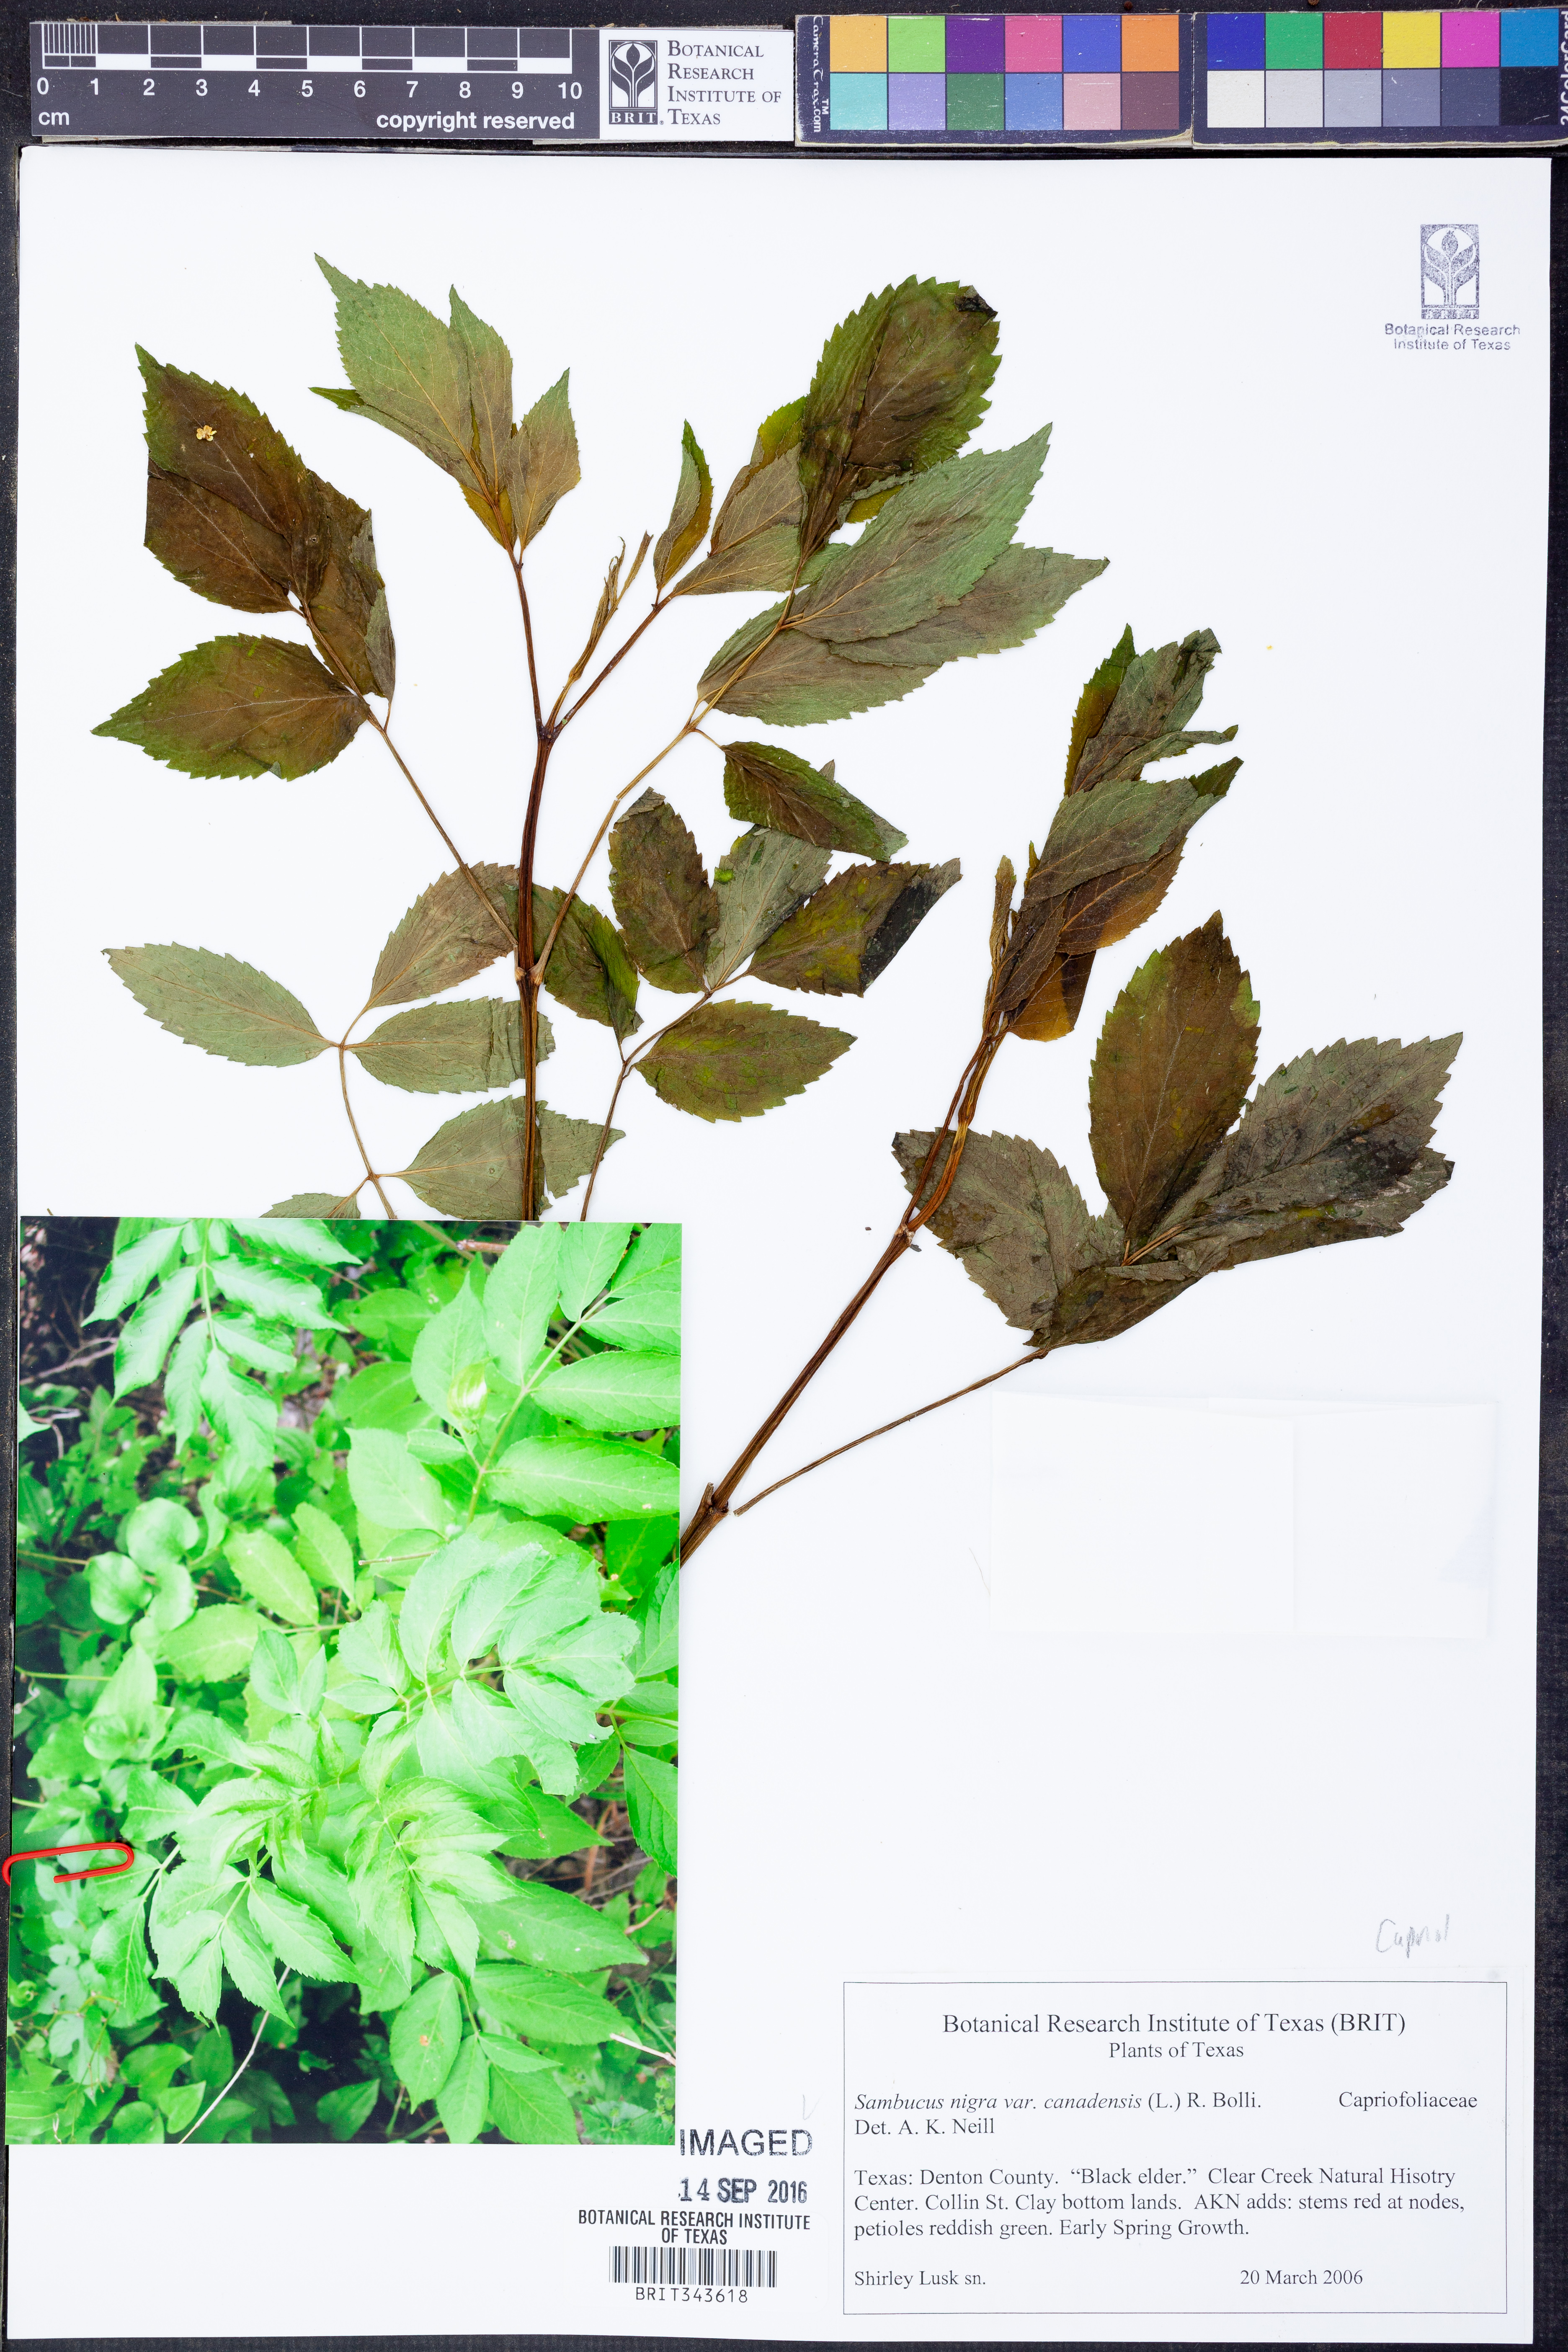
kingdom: Plantae
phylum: Tracheophyta
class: Magnoliopsida
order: Dipsacales
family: Viburnaceae
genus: Sambucus
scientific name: Sambucus canadensis
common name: American elder
